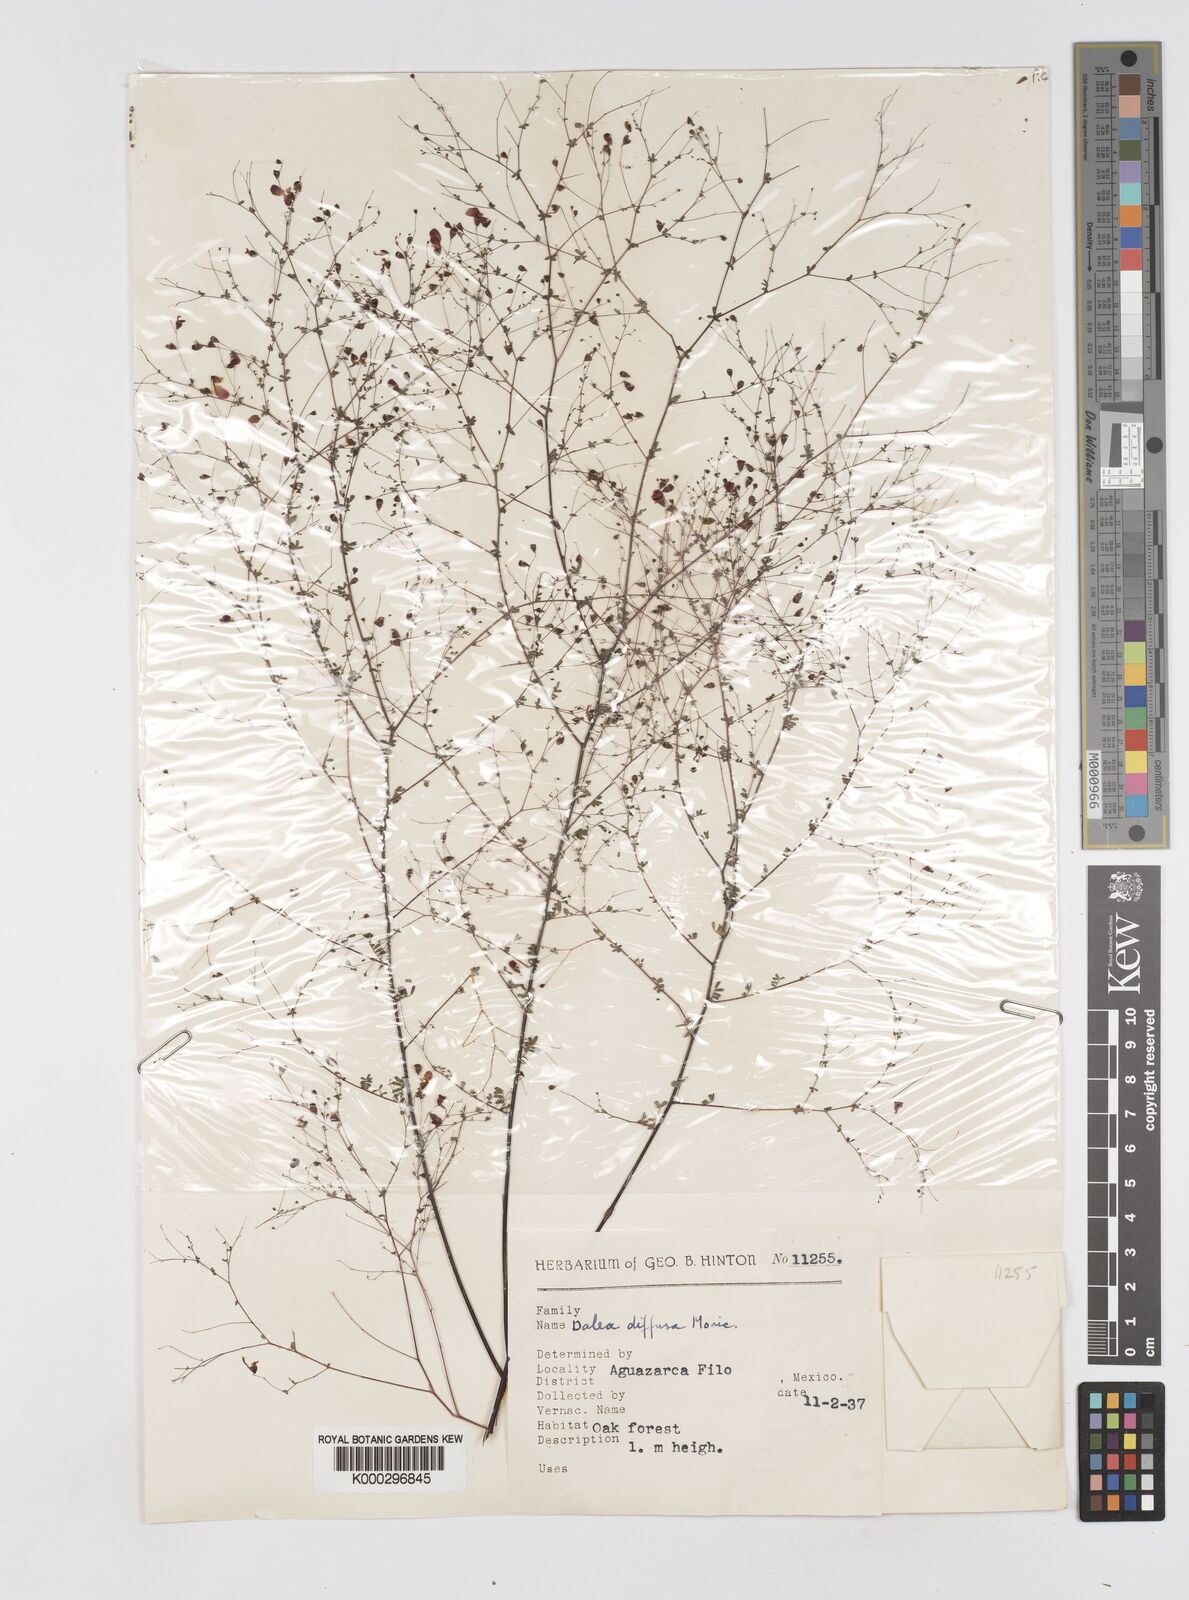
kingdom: Plantae
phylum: Tracheophyta
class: Magnoliopsida
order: Fabales
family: Fabaceae
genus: Marina
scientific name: Marina diffusa
